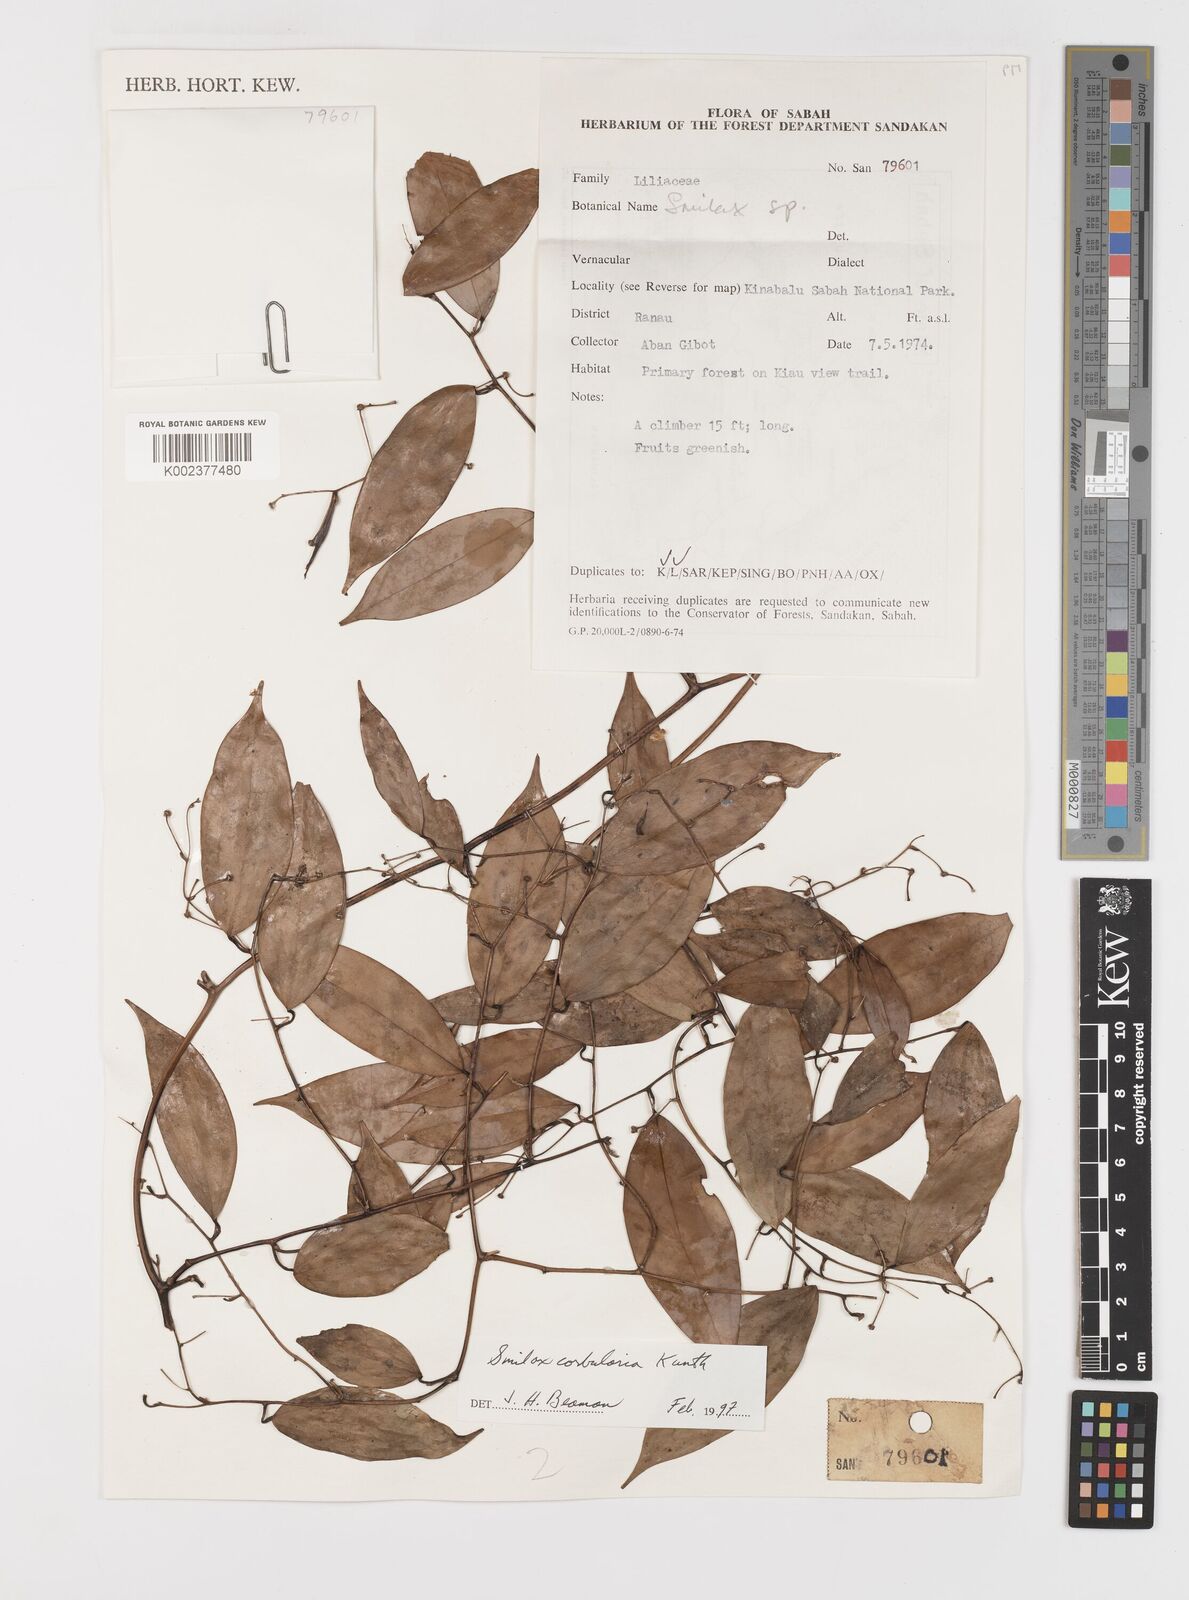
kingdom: Plantae
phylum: Tracheophyta
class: Liliopsida
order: Liliales
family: Smilacaceae
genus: Smilax
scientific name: Smilax corbularia
